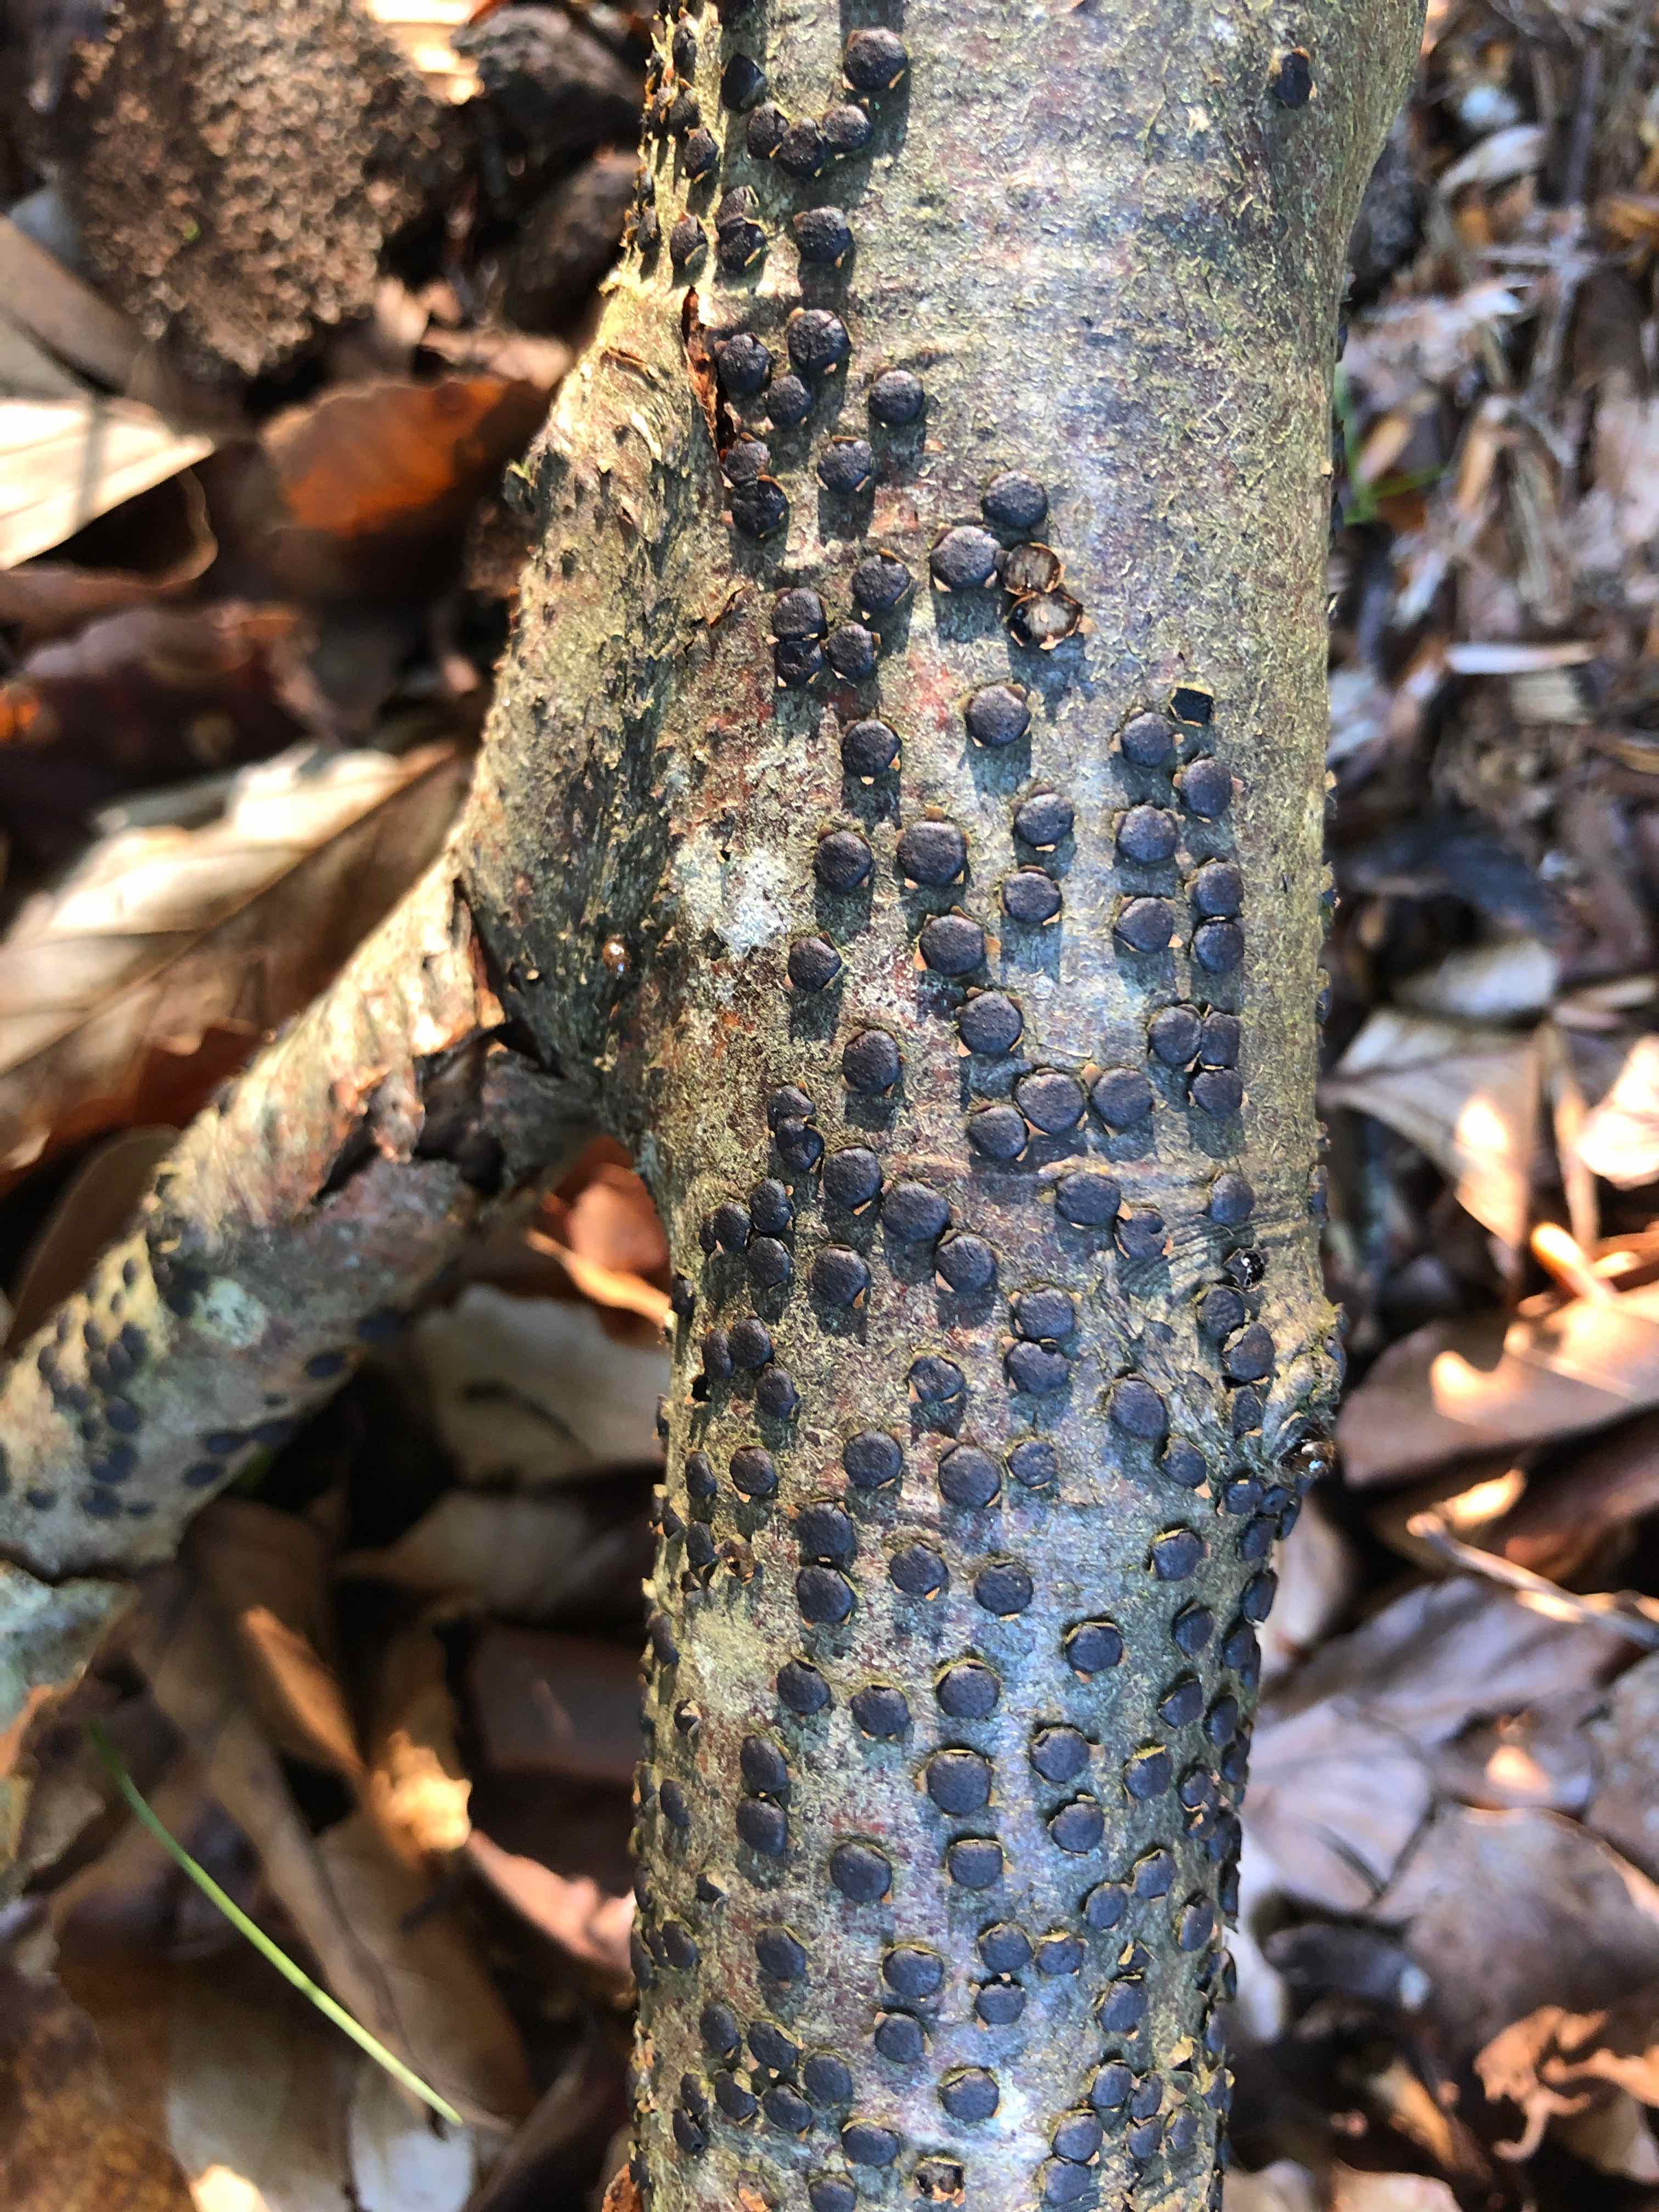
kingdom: Fungi
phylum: Ascomycota
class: Sordariomycetes
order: Xylariales
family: Diatrypaceae
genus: Diatrype
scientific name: Diatrype disciformis
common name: kant-kulskorpe
